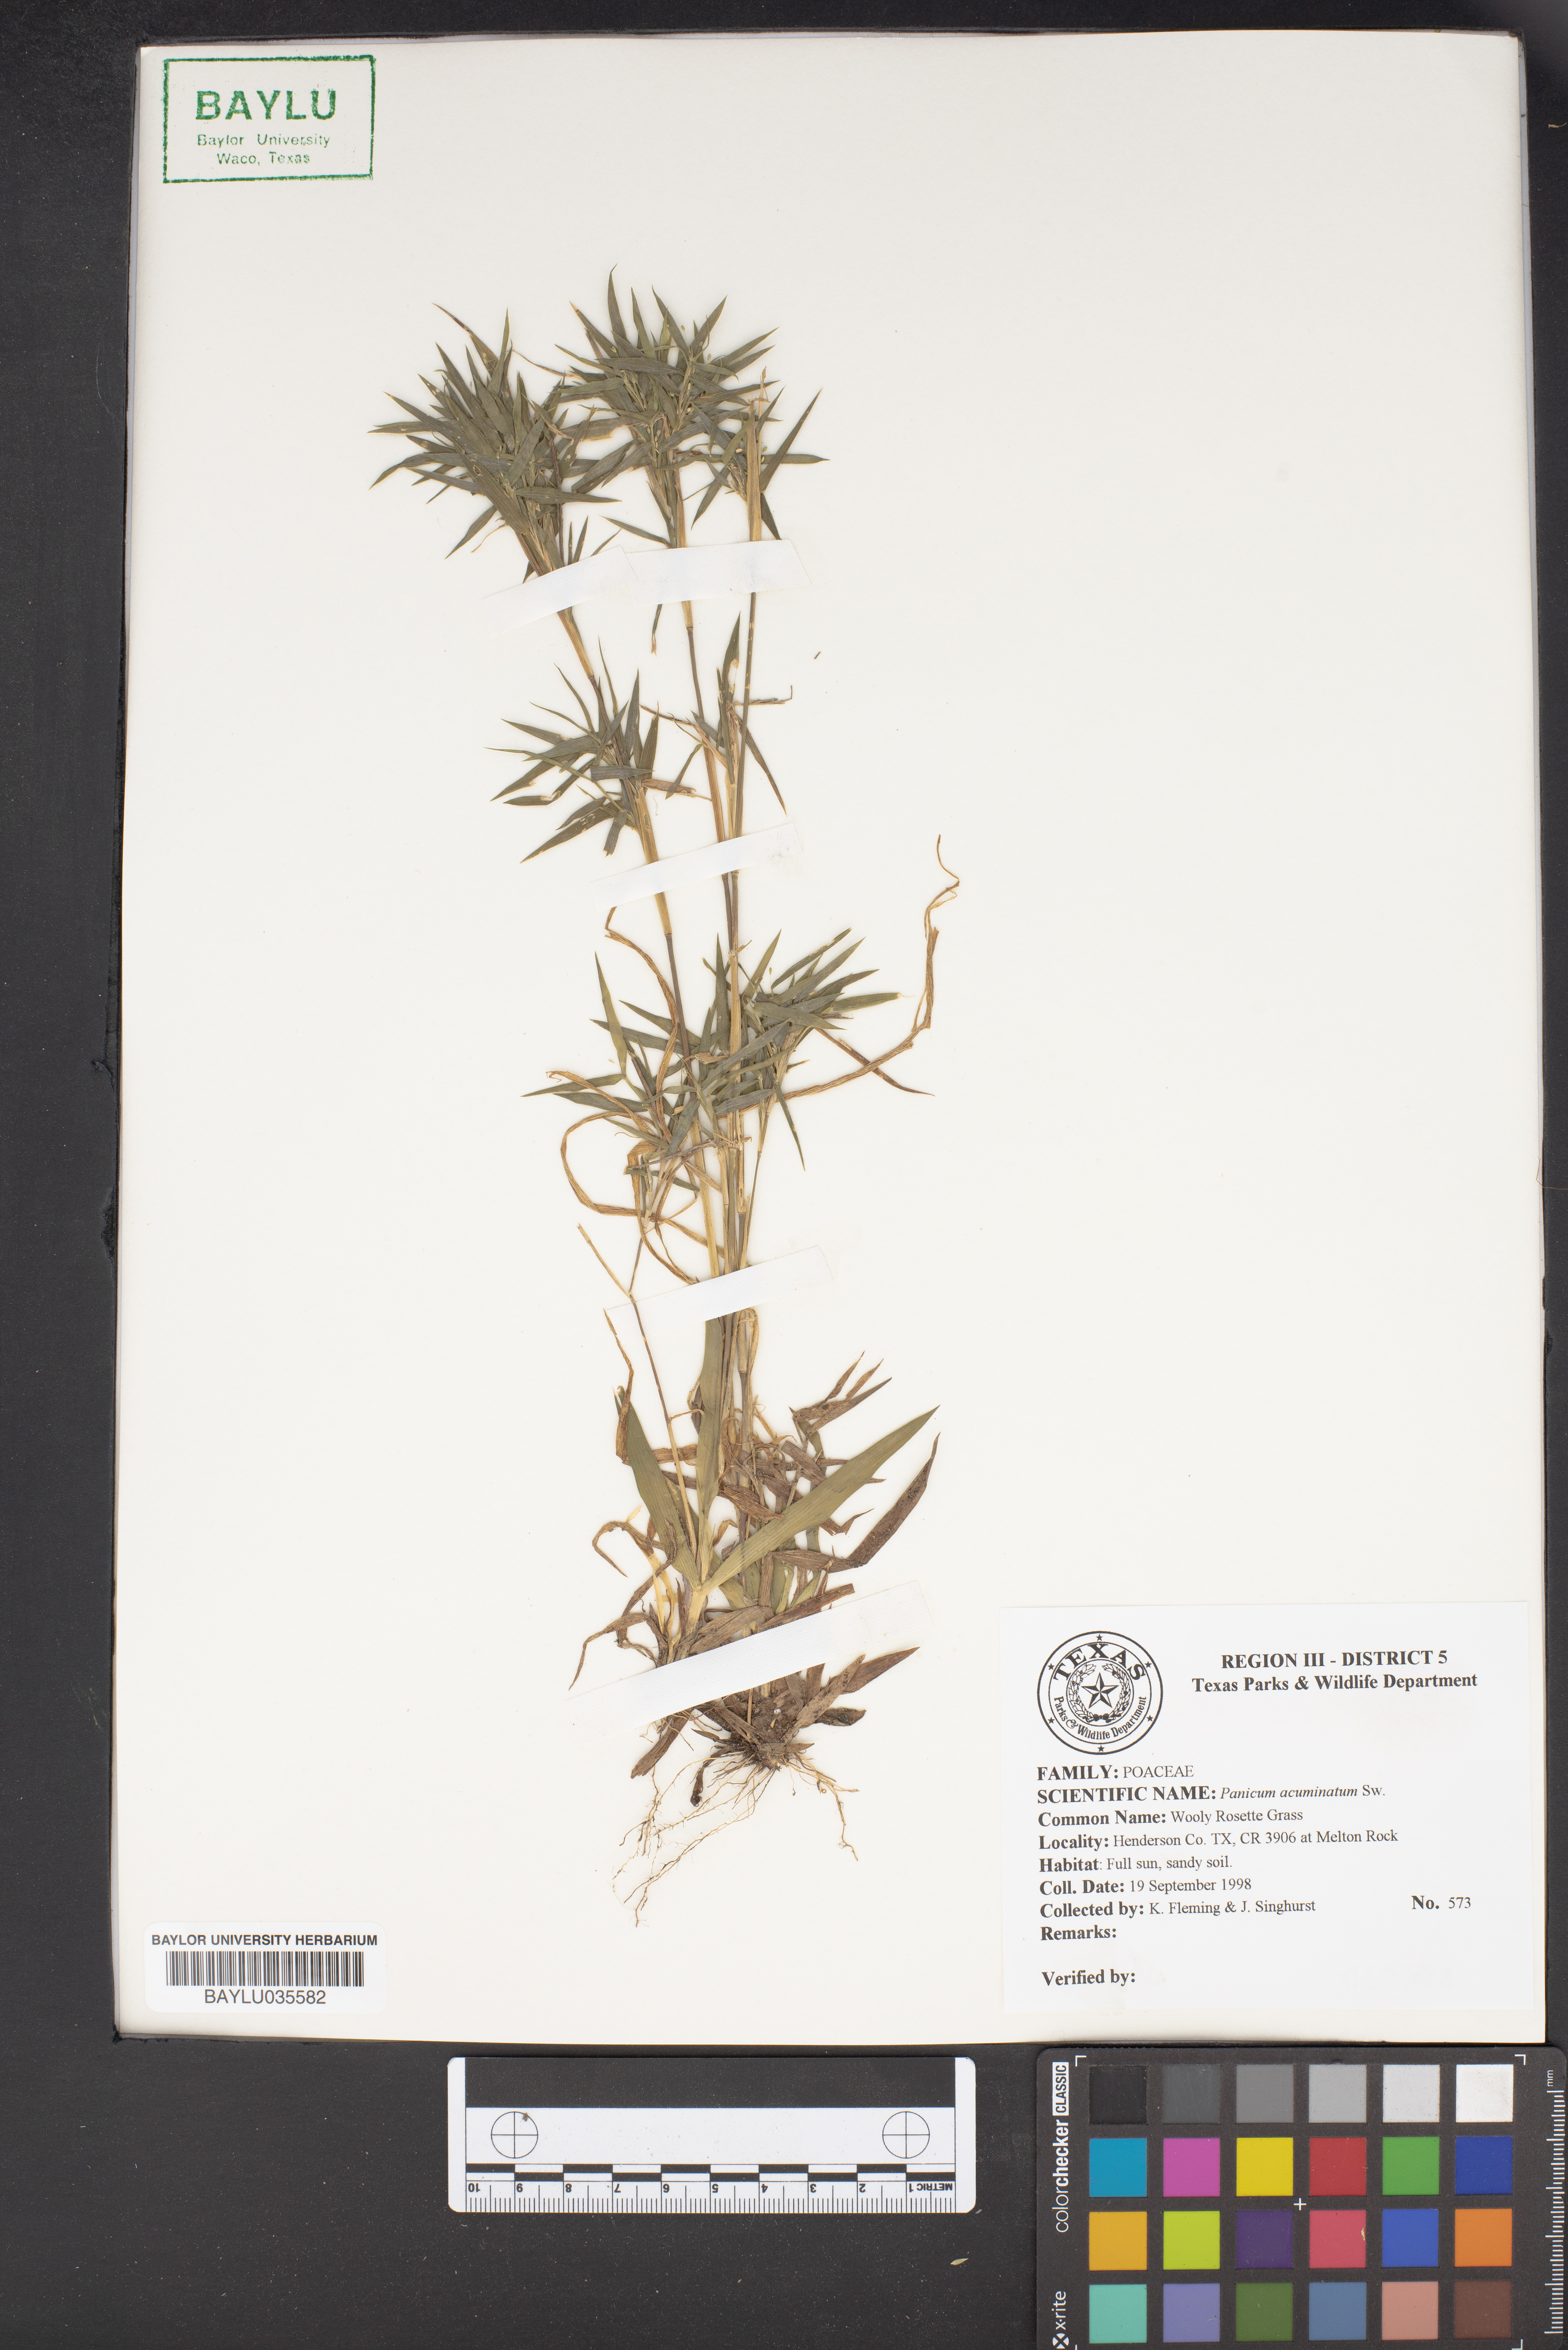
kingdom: Plantae
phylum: Tracheophyta
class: Liliopsida
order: Poales
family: Poaceae
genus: Dichanthelium
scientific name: Dichanthelium acuminatum
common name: Hairy panic grass
